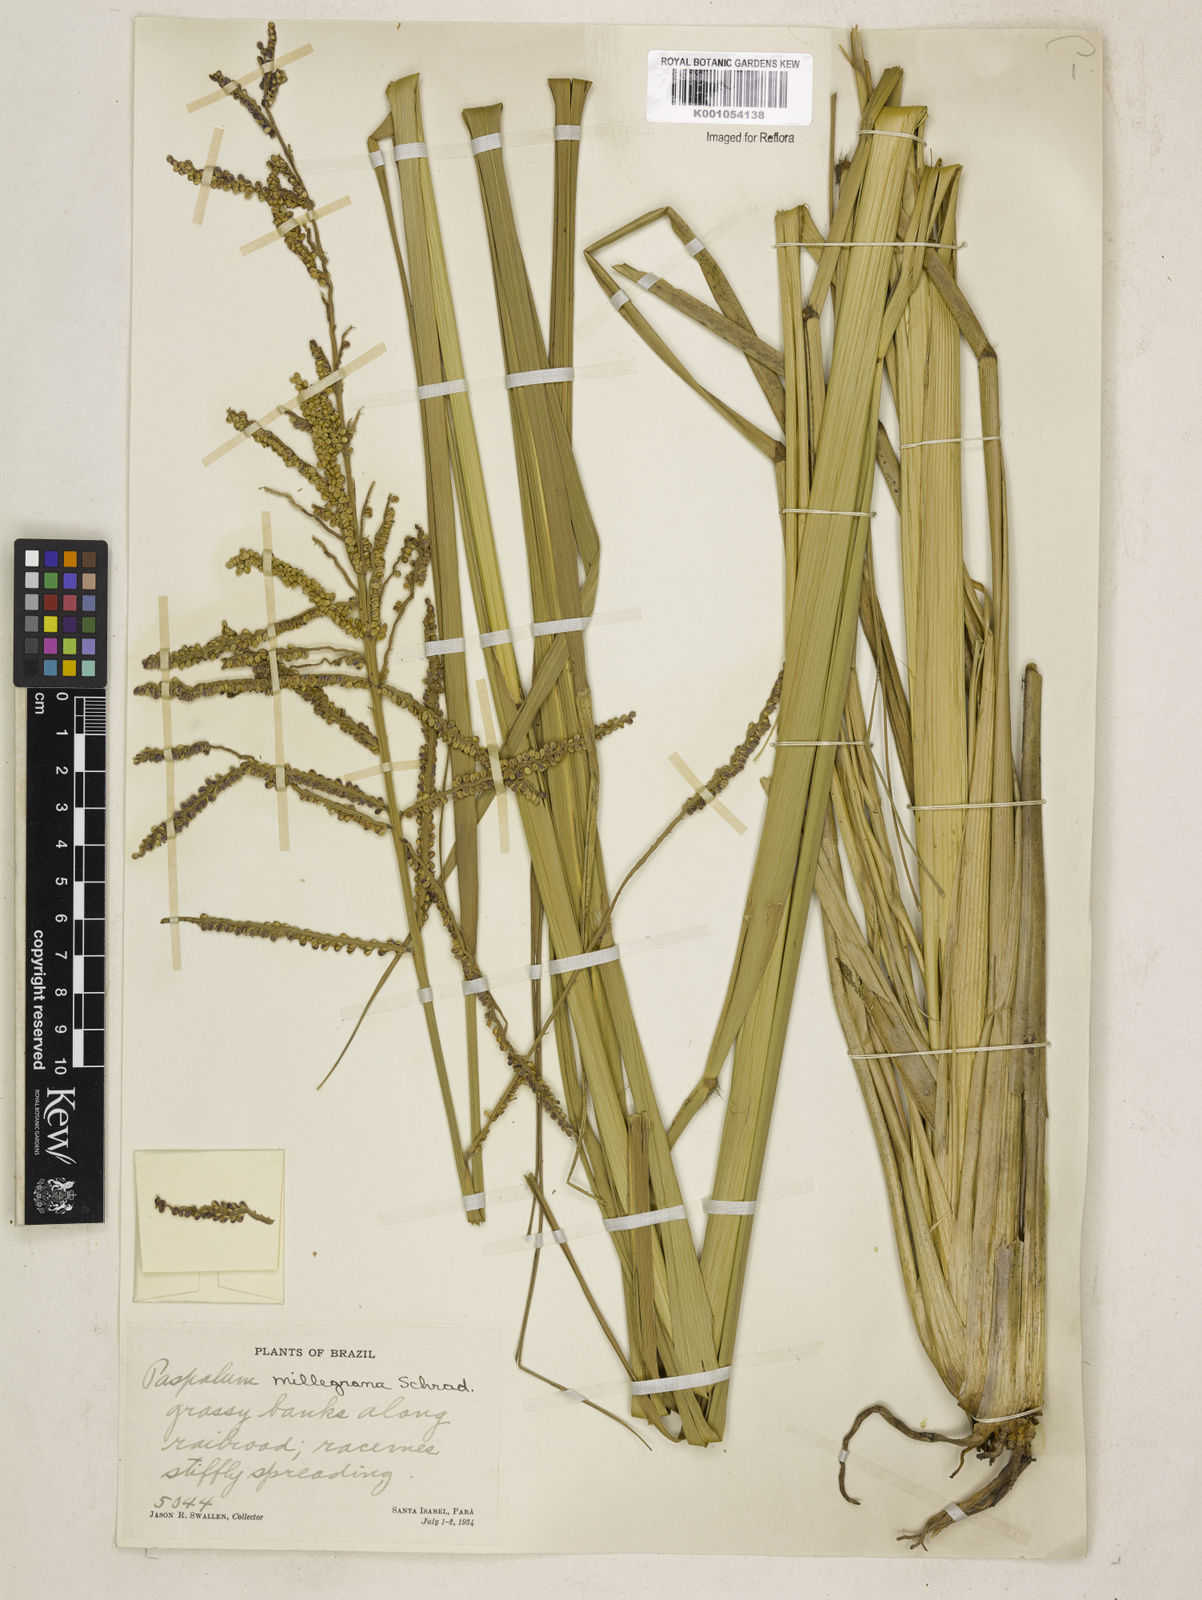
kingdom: Plantae
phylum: Tracheophyta
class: Liliopsida
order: Poales
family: Poaceae
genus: Paspalum
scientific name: Paspalum
